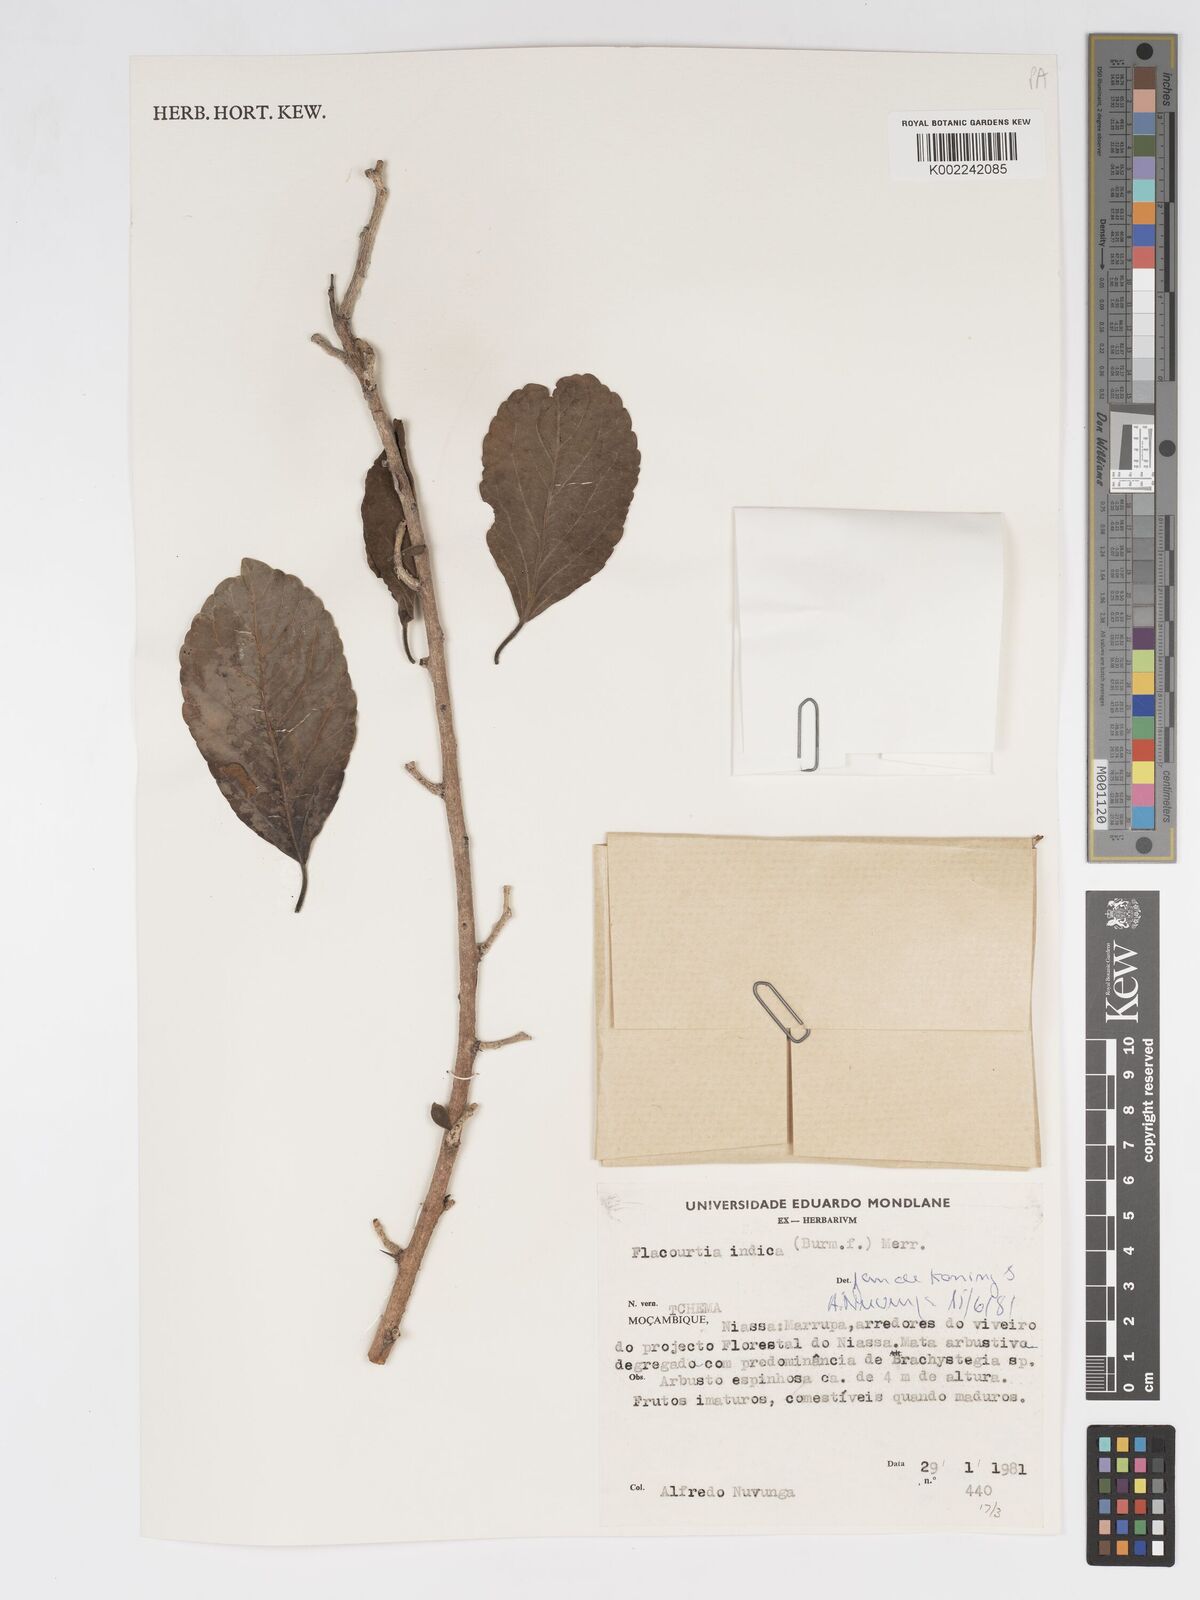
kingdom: Plantae
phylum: Tracheophyta
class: Magnoliopsida
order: Malpighiales
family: Salicaceae
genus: Flacourtia
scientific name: Flacourtia indica
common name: Governor's plum
